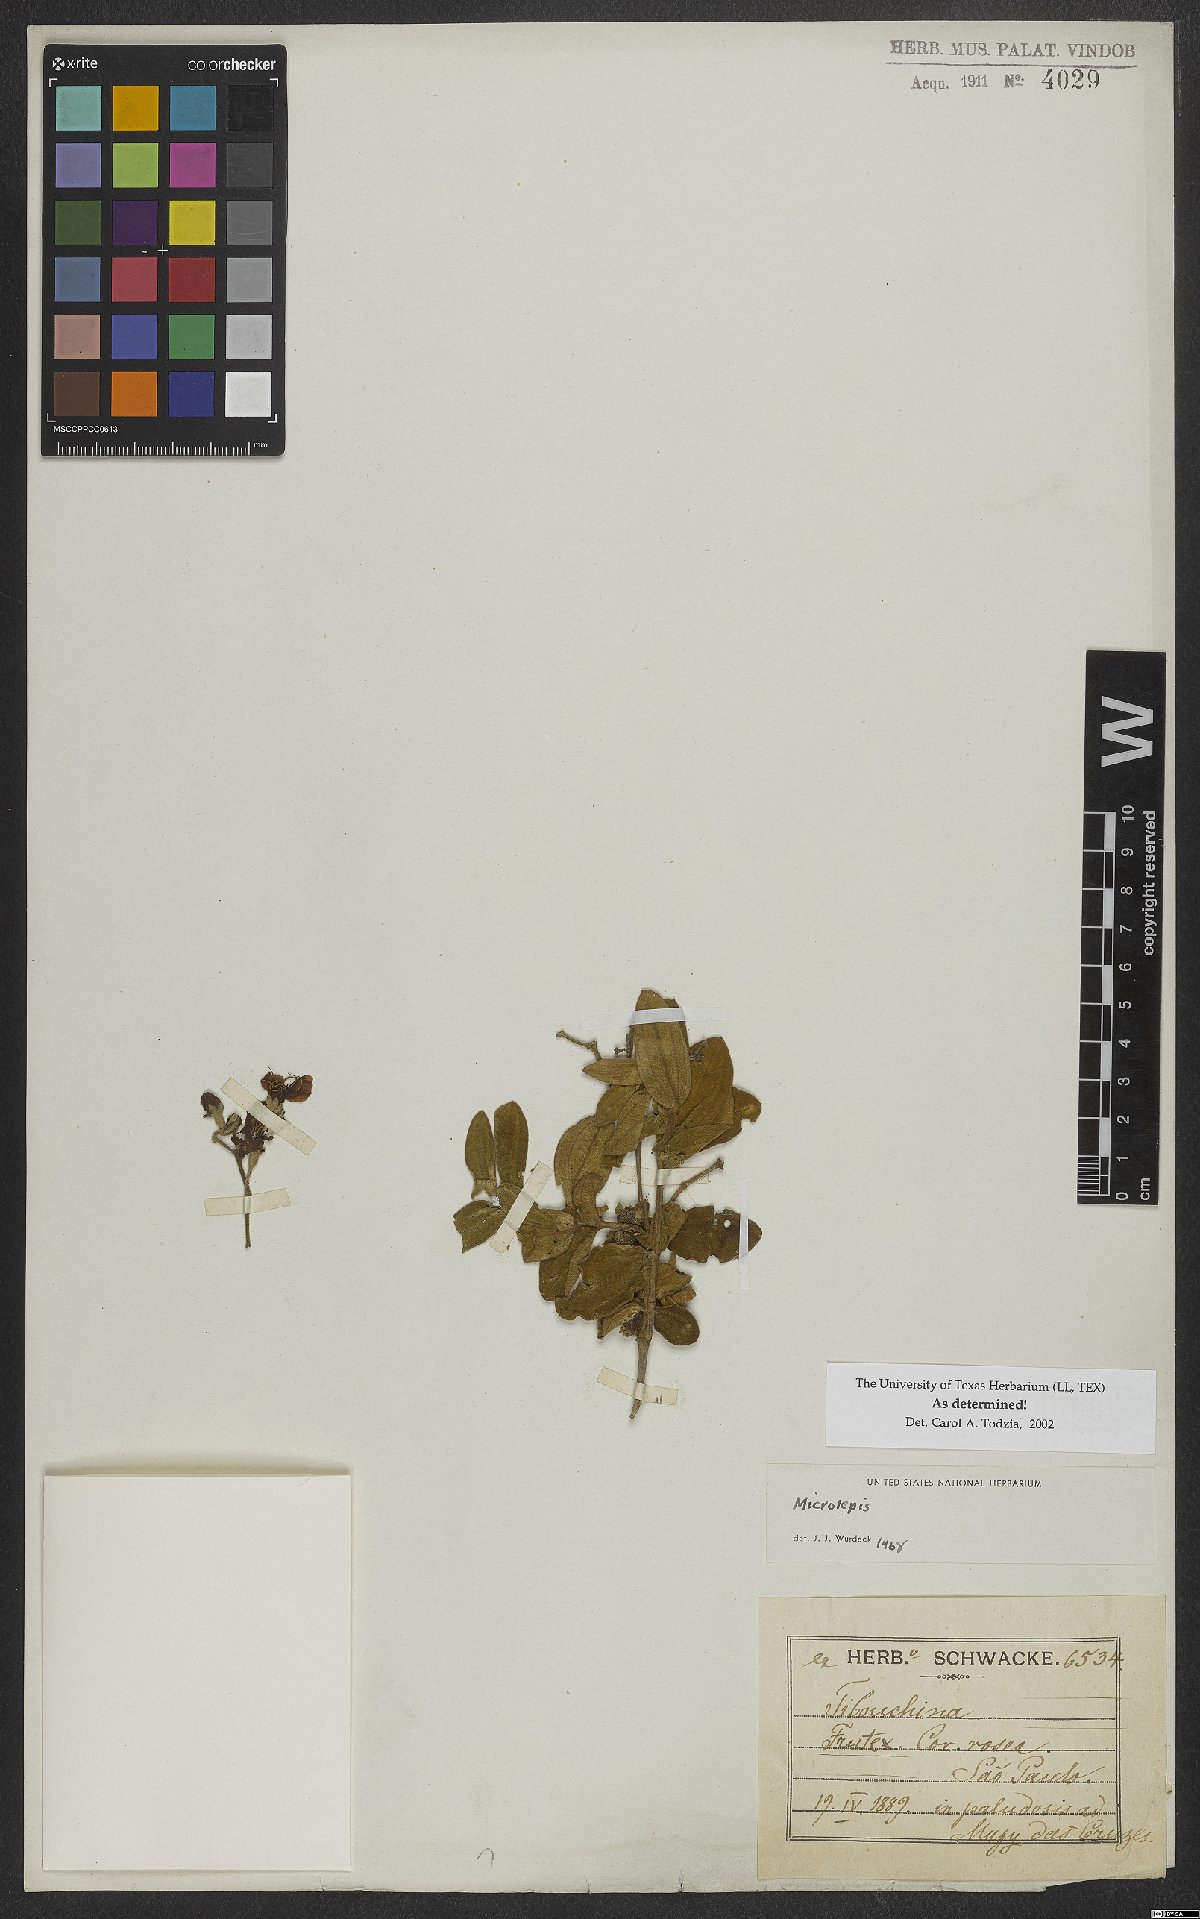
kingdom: Plantae
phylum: Tracheophyta
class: Magnoliopsida
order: Myrtales
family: Melastomataceae
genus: Pleroma
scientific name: Pleroma
